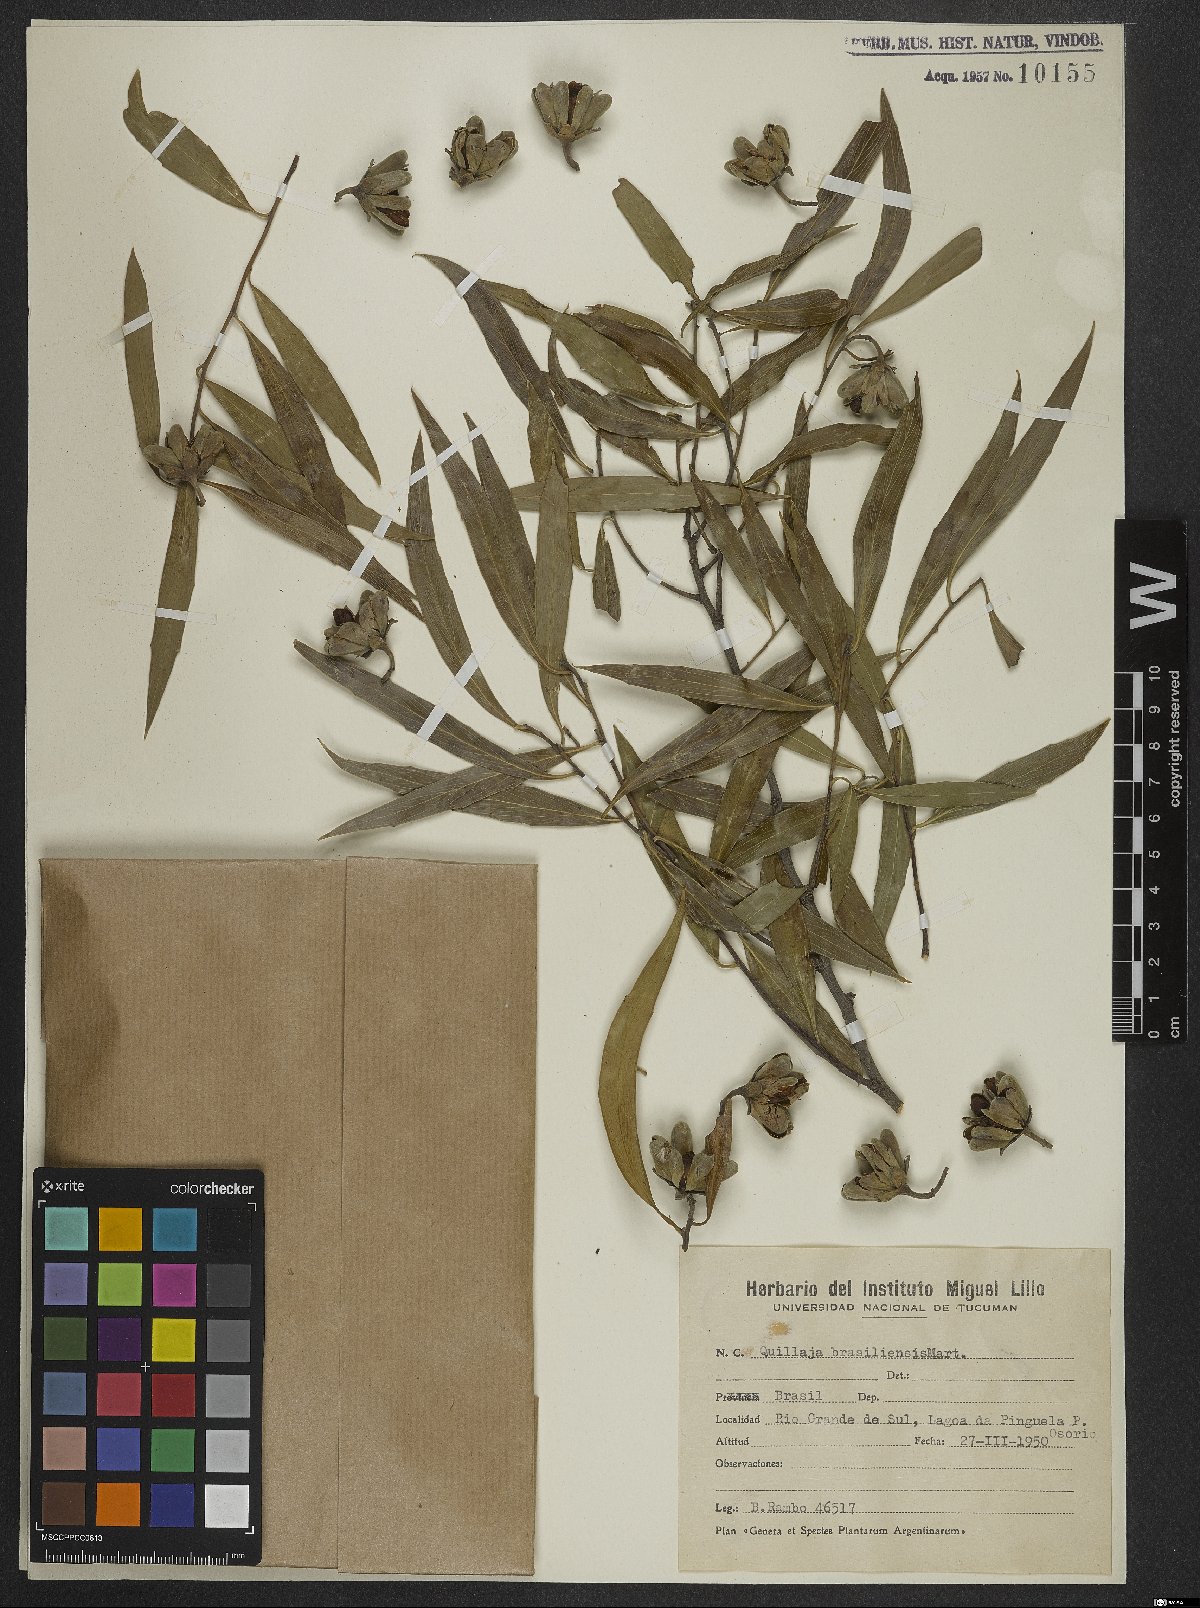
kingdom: Plantae
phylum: Tracheophyta
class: Magnoliopsida
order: Fabales
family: Quillajaceae
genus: Quillaja
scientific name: Quillaja brasiliensis
